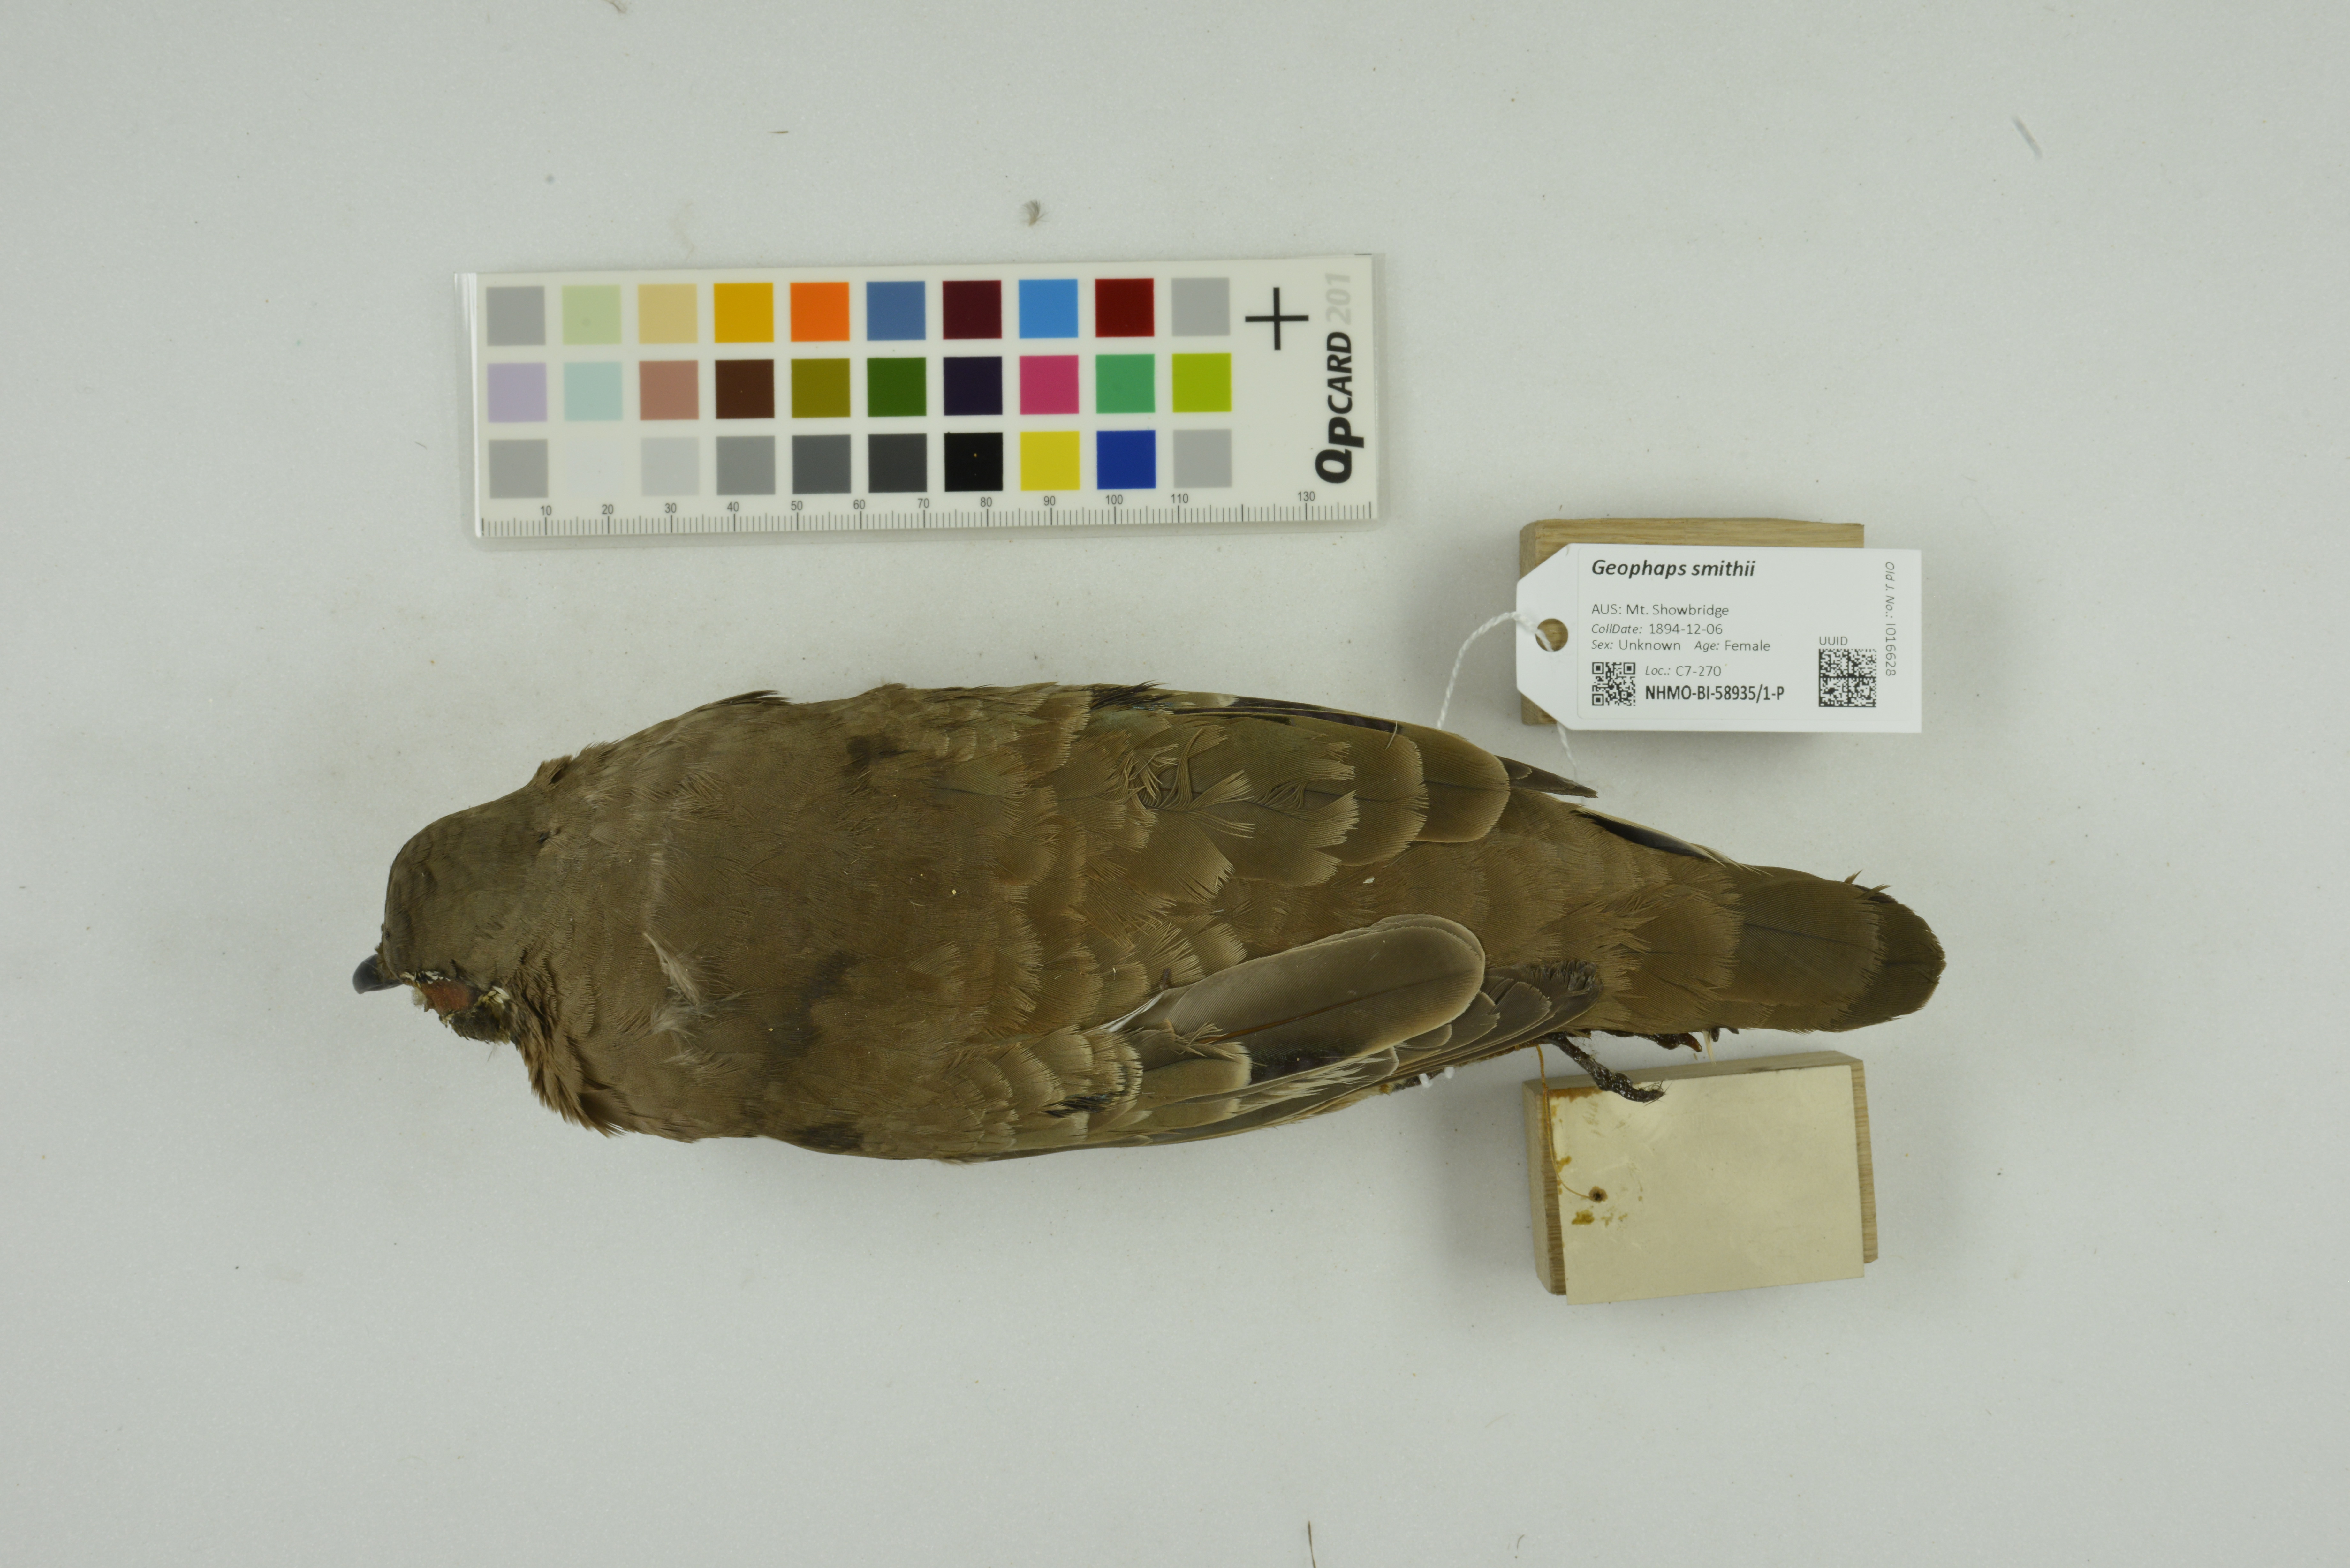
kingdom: Animalia
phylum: Chordata
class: Aves
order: Columbiformes
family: Columbidae
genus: Geophaps
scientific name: Geophaps smithii
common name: Partridge pigeon
